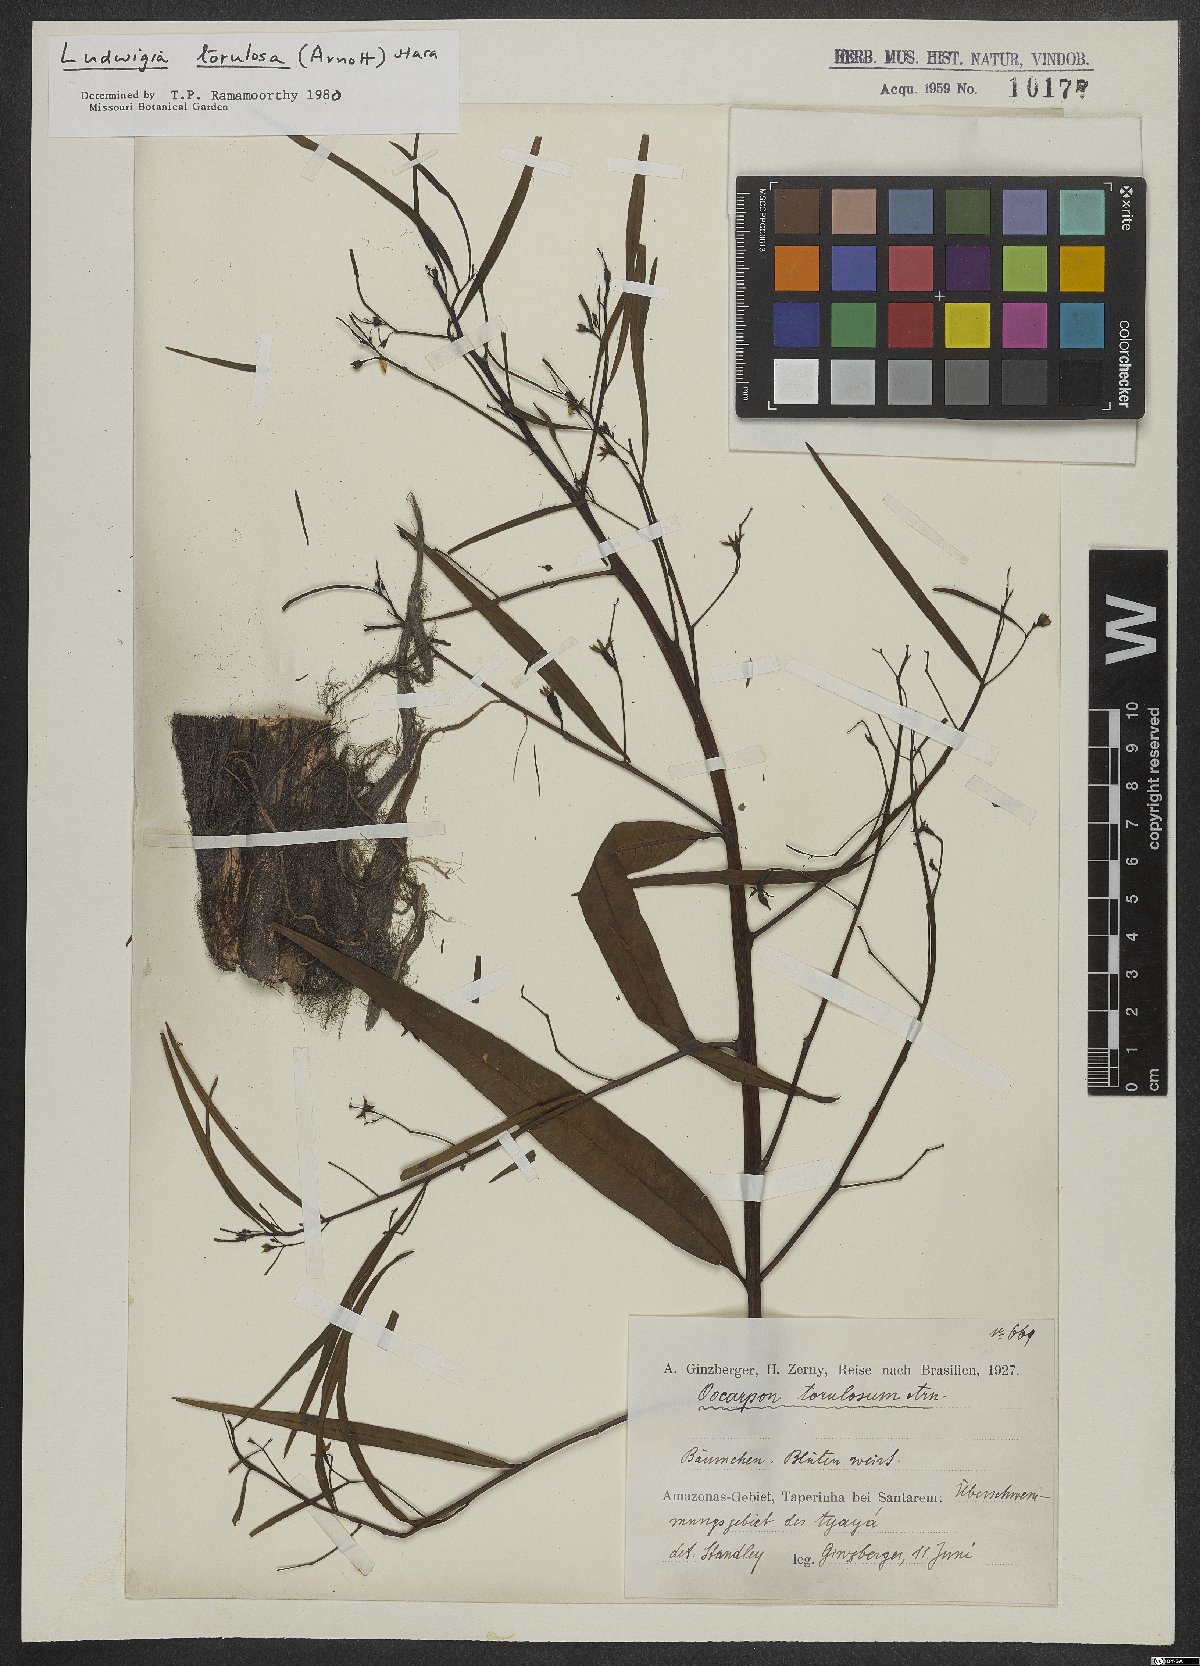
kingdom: Plantae
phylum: Tracheophyta
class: Magnoliopsida
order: Myrtales
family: Onagraceae
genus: Ludwigia
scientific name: Ludwigia torulosa
